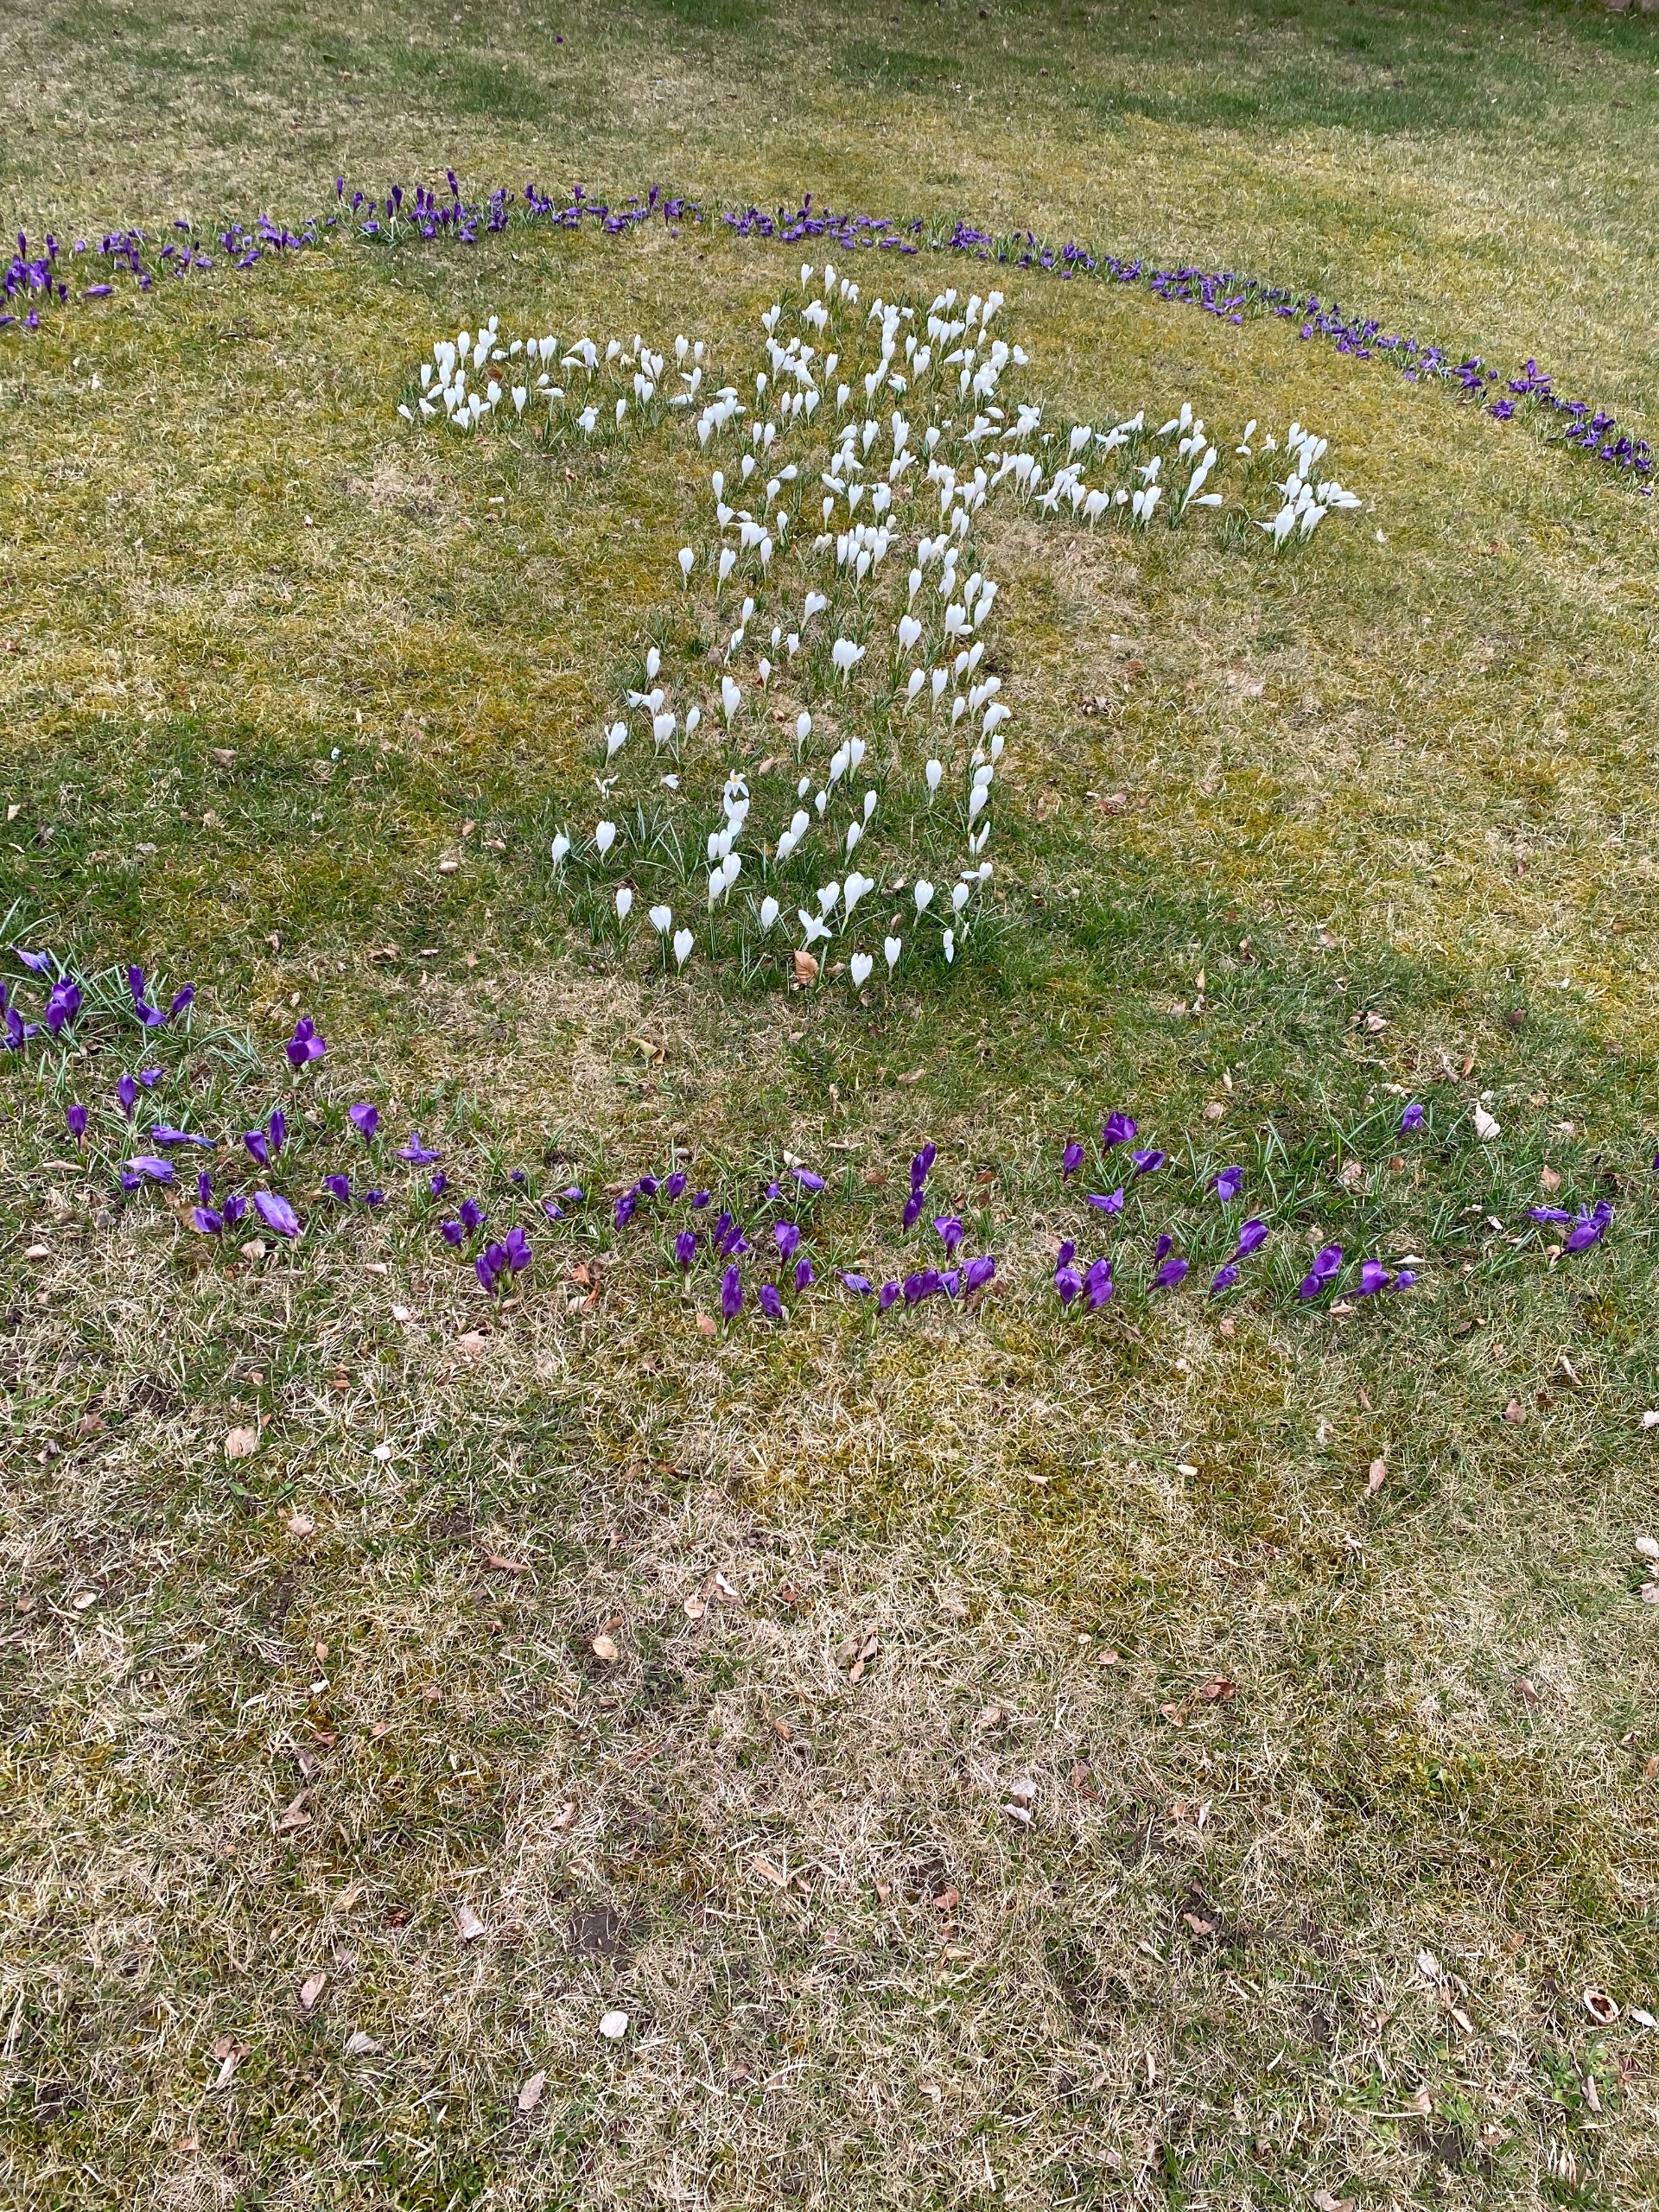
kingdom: Plantae
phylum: Tracheophyta
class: Liliopsida
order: Asparagales
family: Iridaceae
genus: Crocus
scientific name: Crocus vernus
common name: Vår-krokus
